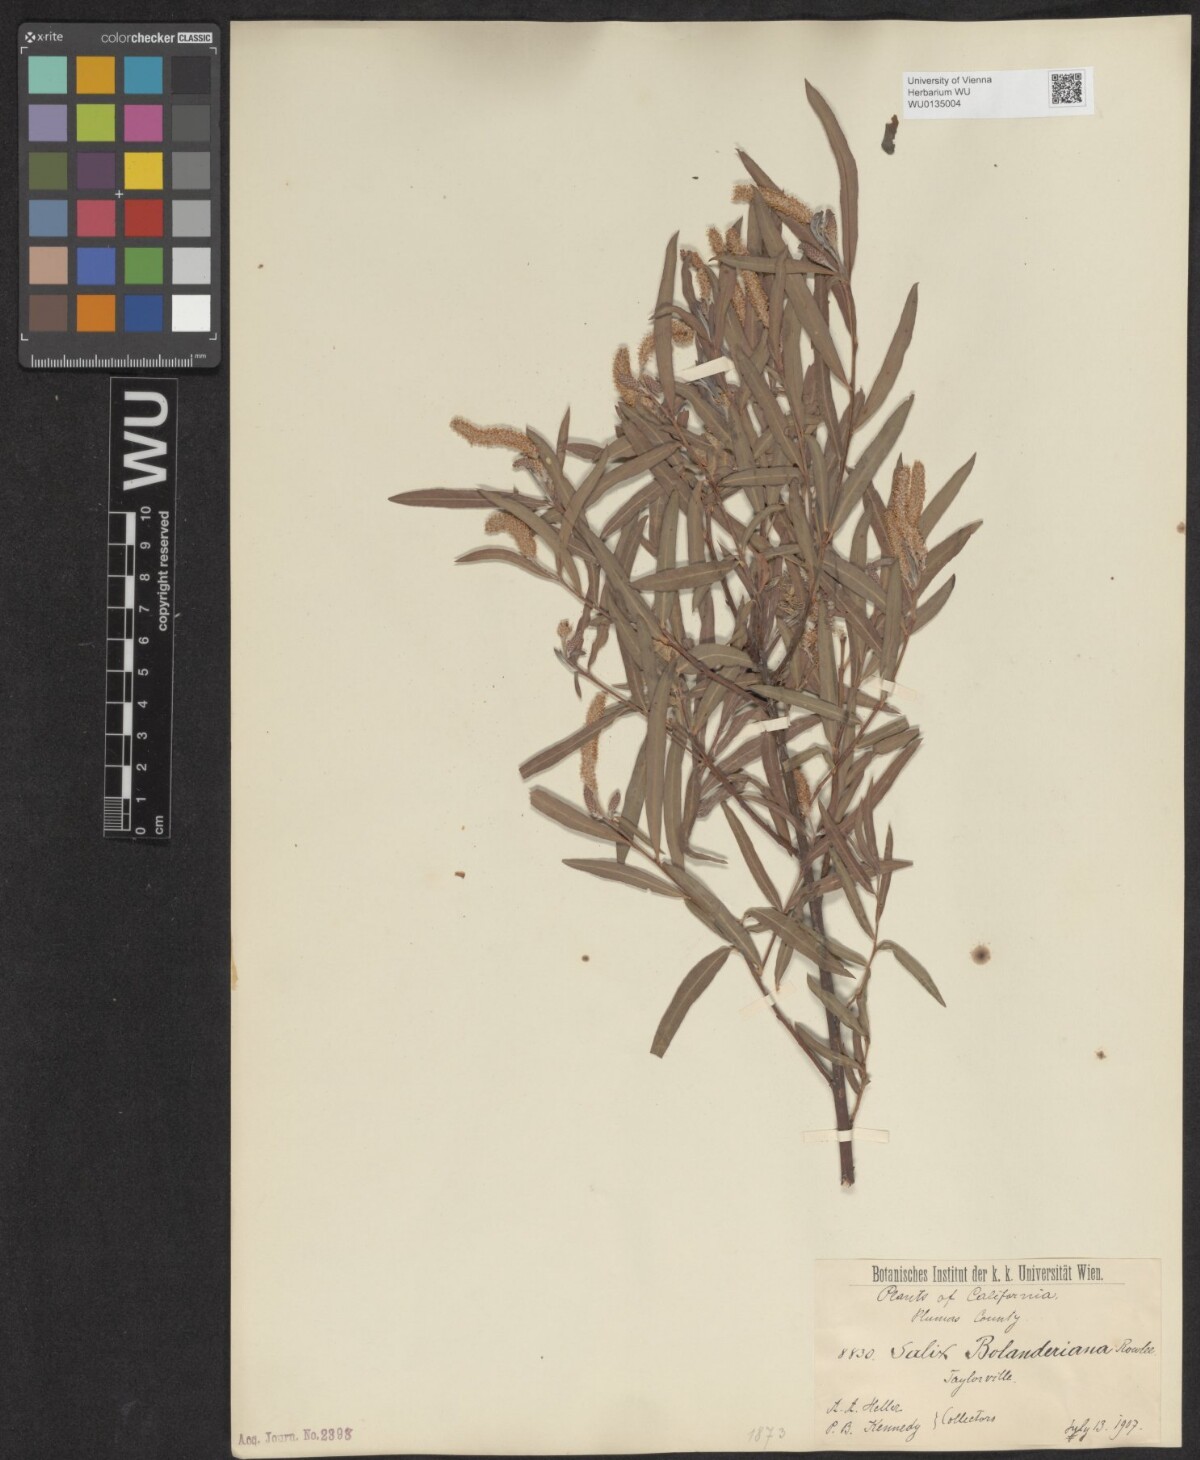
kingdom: Plantae
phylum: Tracheophyta
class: Magnoliopsida
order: Malpighiales
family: Salicaceae
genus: Salix
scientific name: Salix melanopsis
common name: Dusky willow
